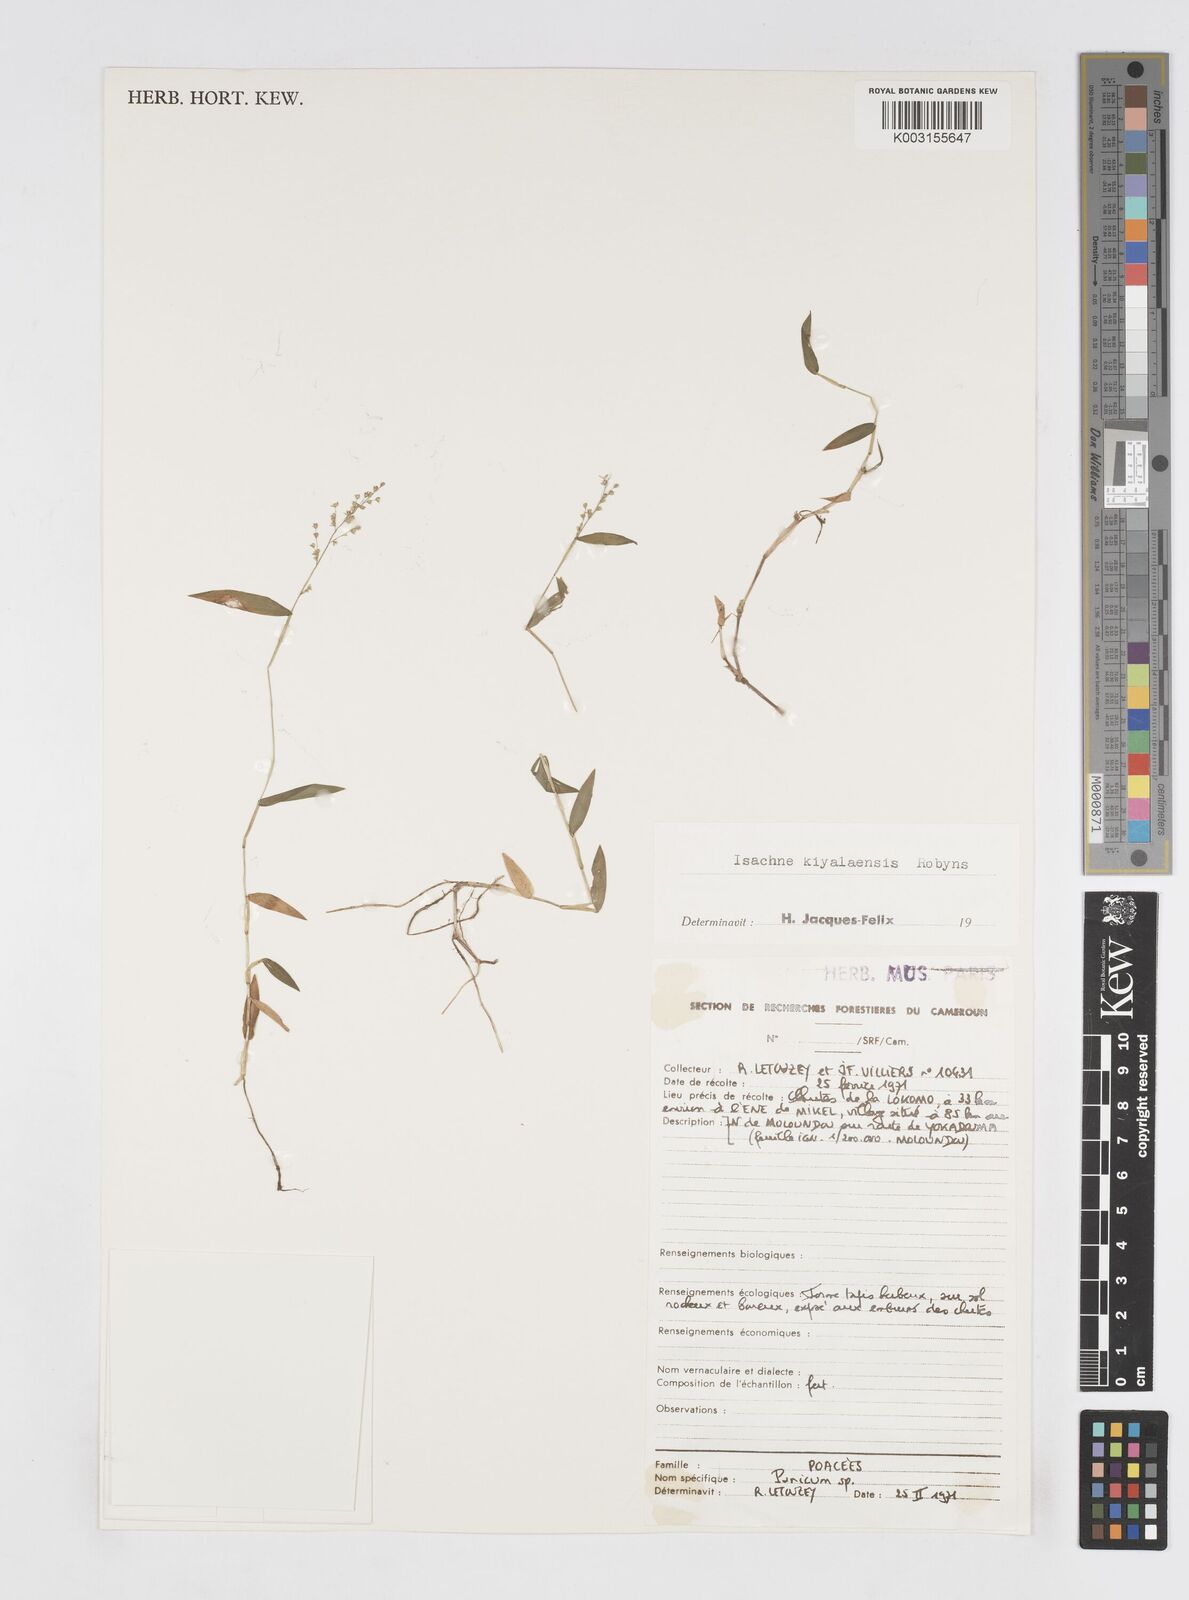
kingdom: Plantae
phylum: Tracheophyta
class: Liliopsida
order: Poales
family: Poaceae
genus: Isachne
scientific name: Isachne kiyalaensis
